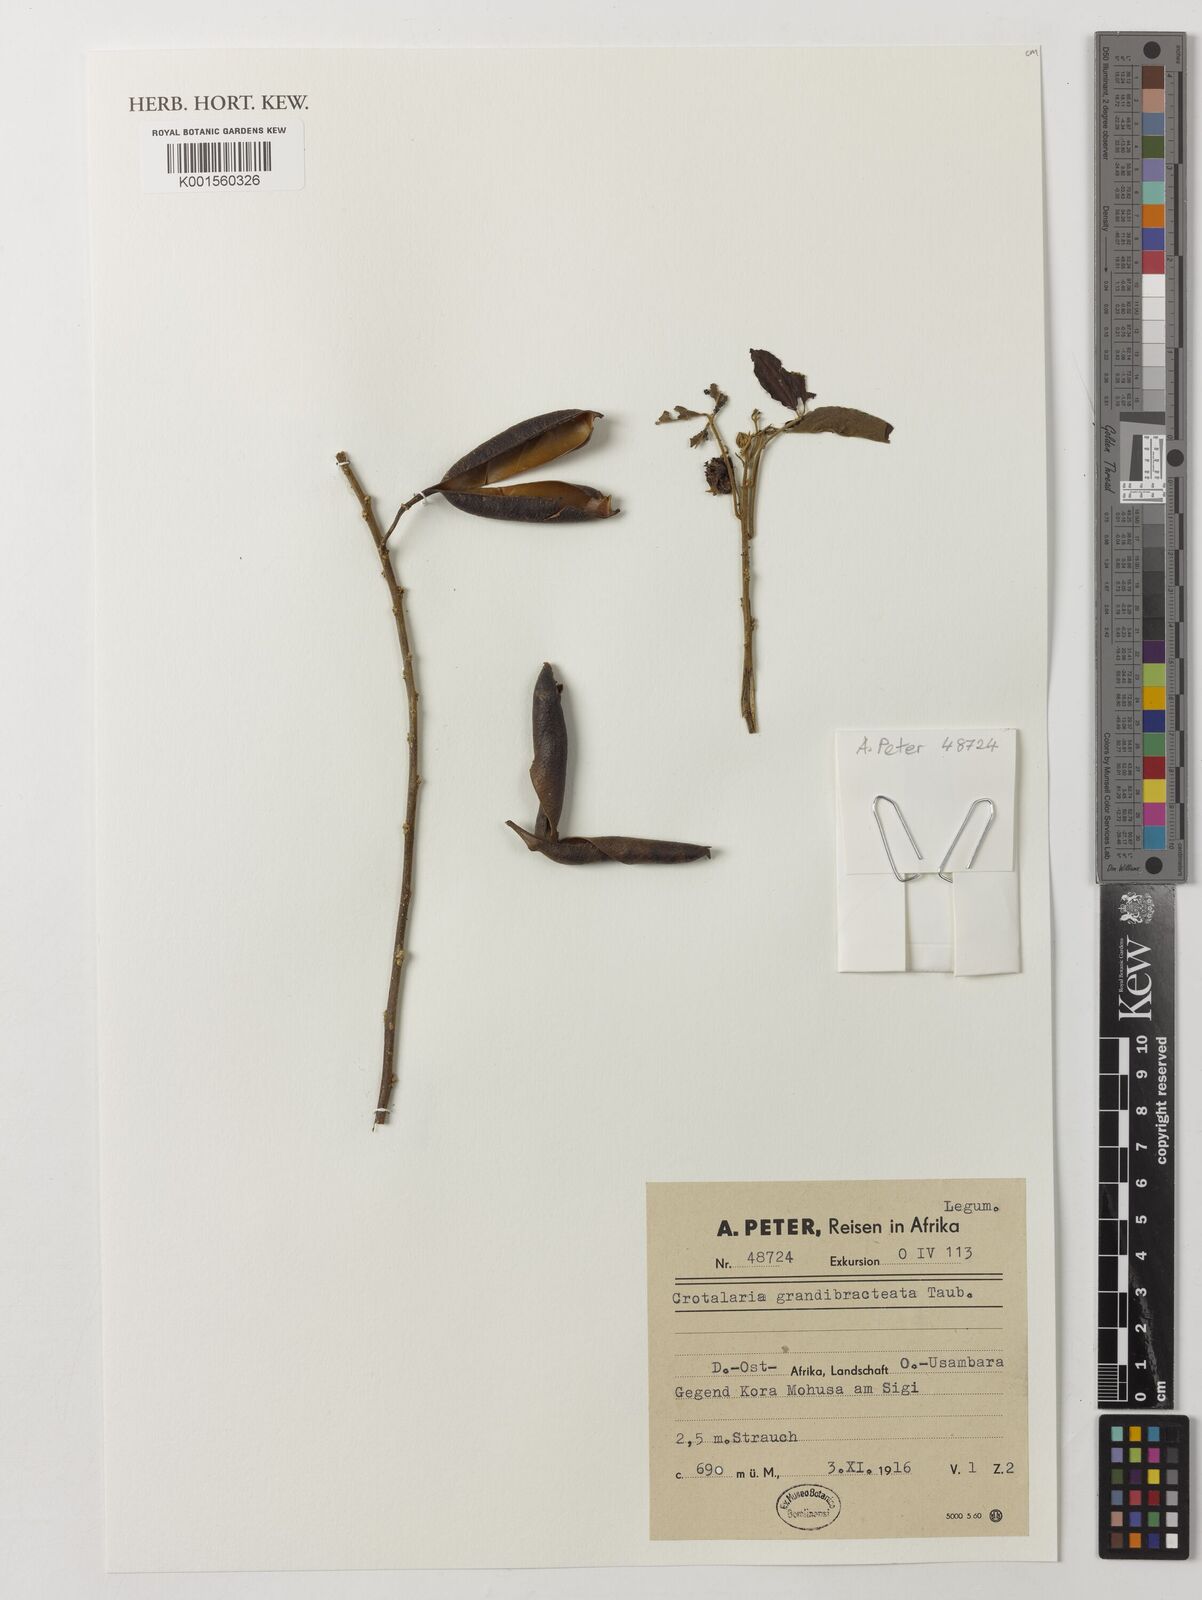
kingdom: Plantae
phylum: Tracheophyta
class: Magnoliopsida
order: Fabales
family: Fabaceae
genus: Crotalaria
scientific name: Crotalaria grandibracteata
